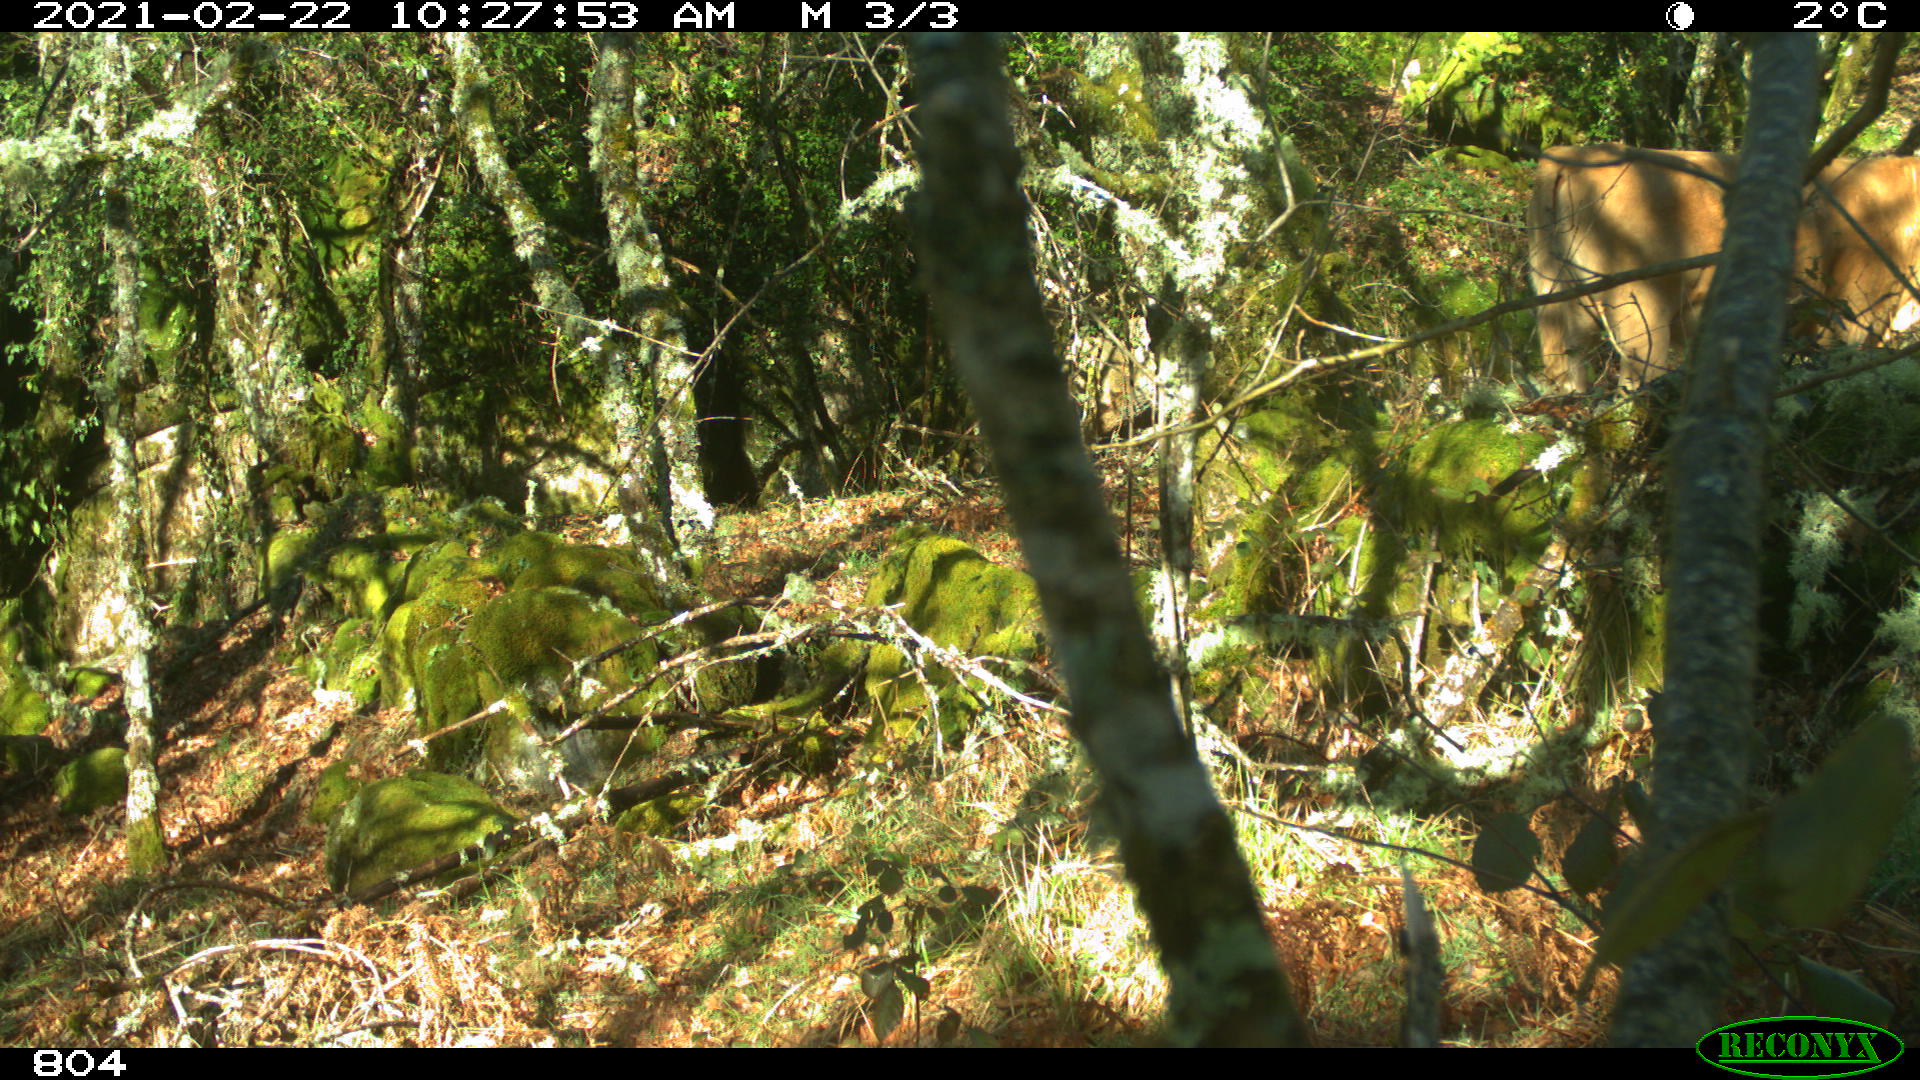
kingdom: Animalia
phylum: Chordata
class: Mammalia
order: Artiodactyla
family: Bovidae
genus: Bos
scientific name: Bos taurus
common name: Domesticated cattle
